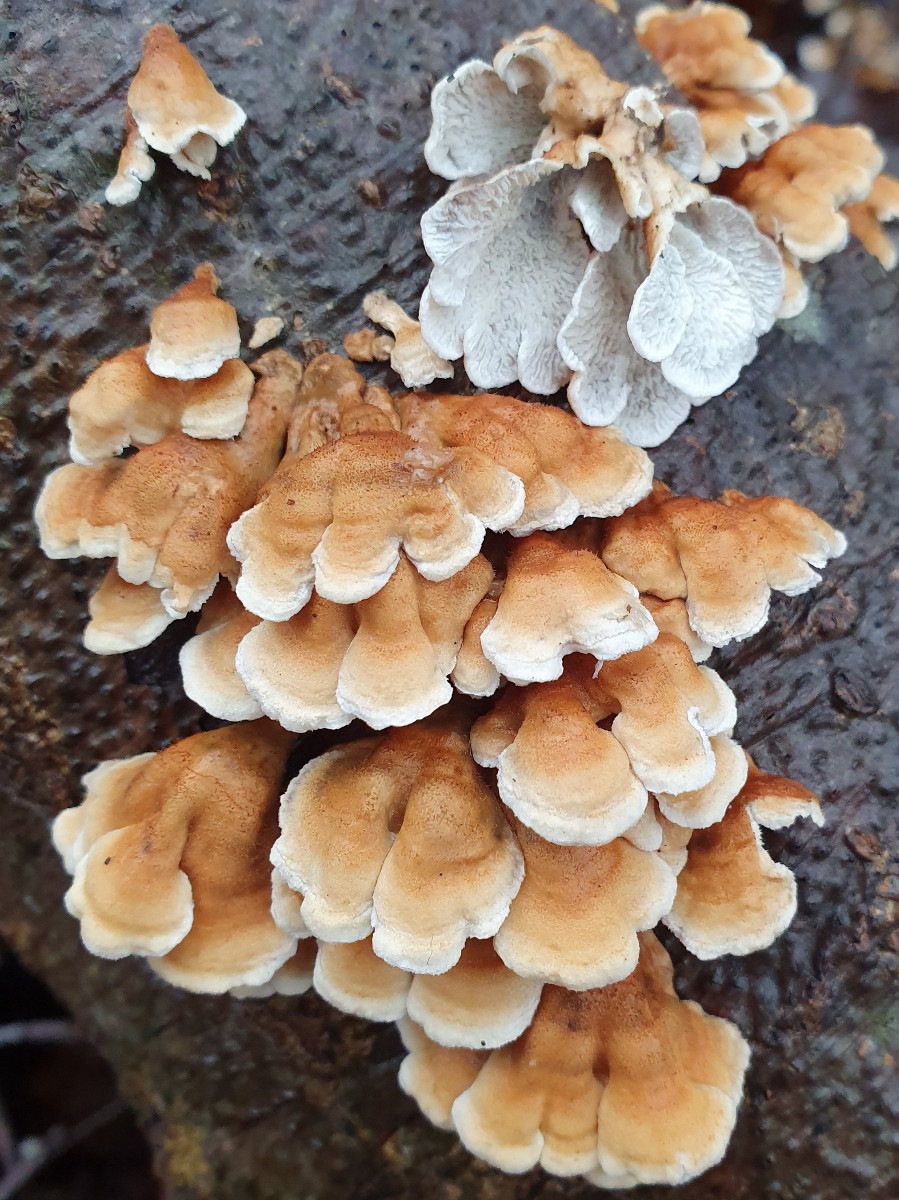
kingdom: Fungi
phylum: Basidiomycota
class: Agaricomycetes
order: Amylocorticiales
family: Amylocorticiaceae
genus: Plicaturopsis
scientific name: Plicaturopsis crispa
